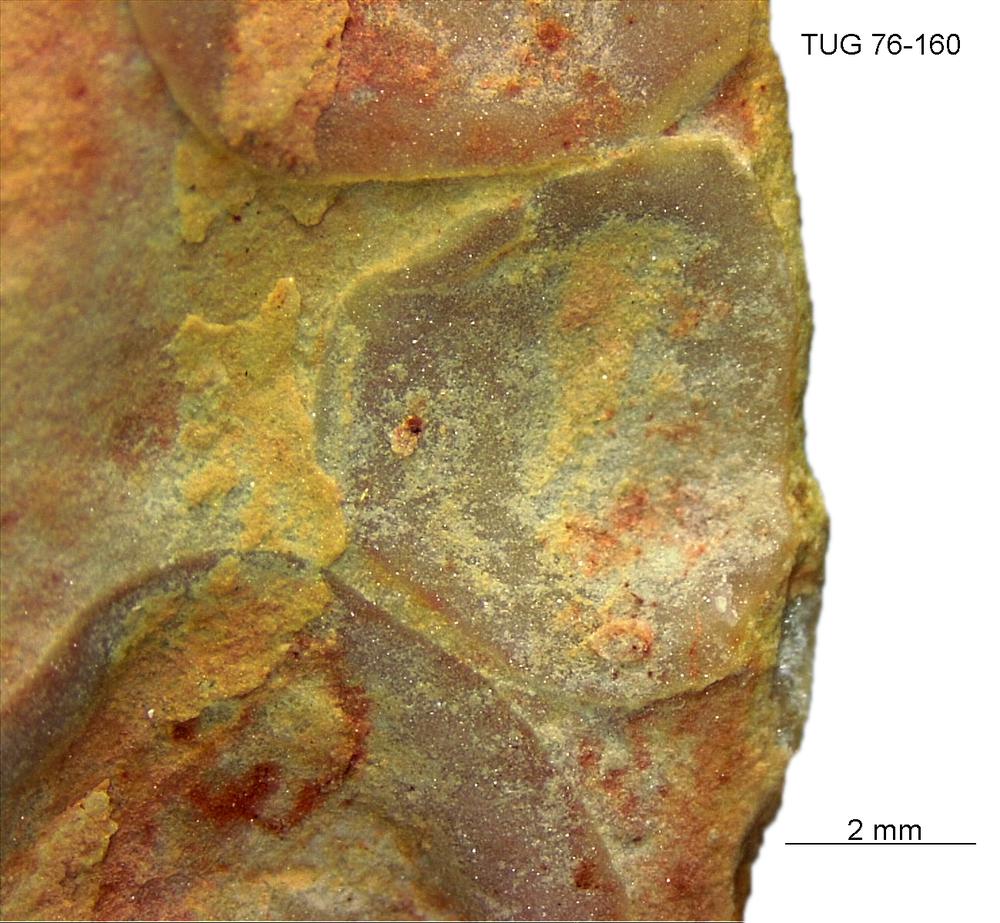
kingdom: Animalia
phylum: Brachiopoda
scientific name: Brachiopoda
